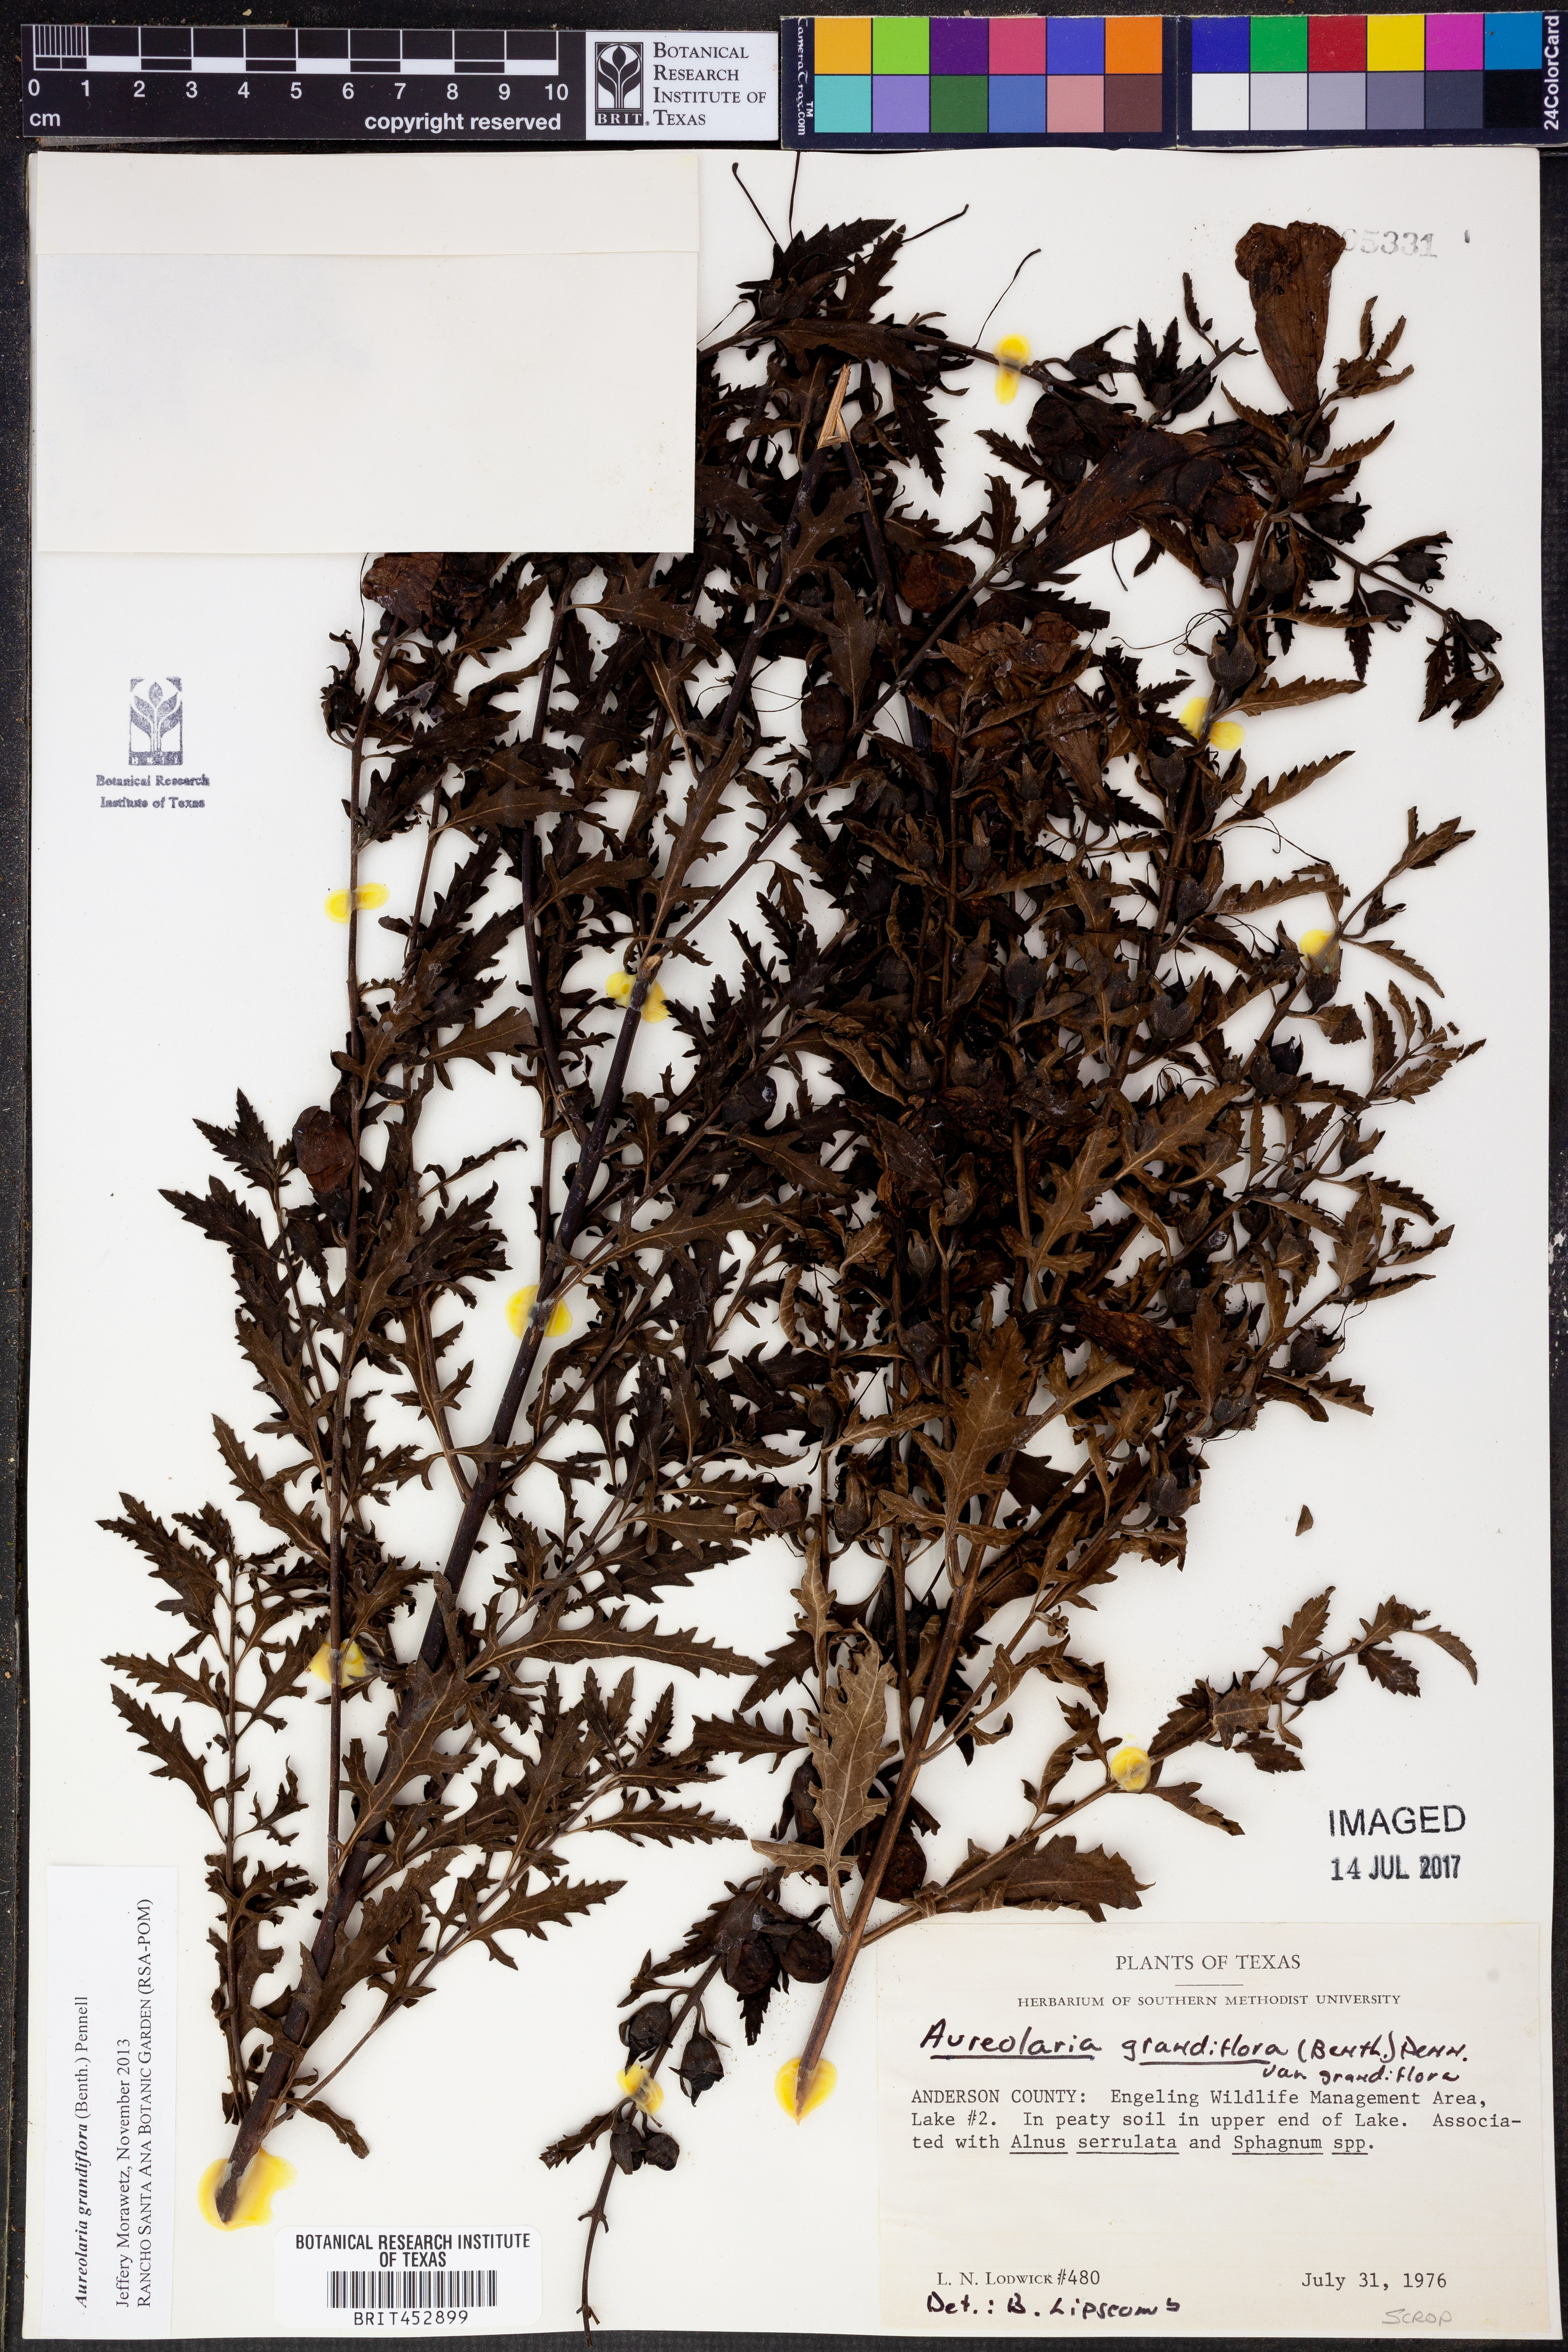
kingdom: Plantae
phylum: Tracheophyta
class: Magnoliopsida
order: Lamiales
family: Orobanchaceae
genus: Aureolaria
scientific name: Aureolaria grandiflora
